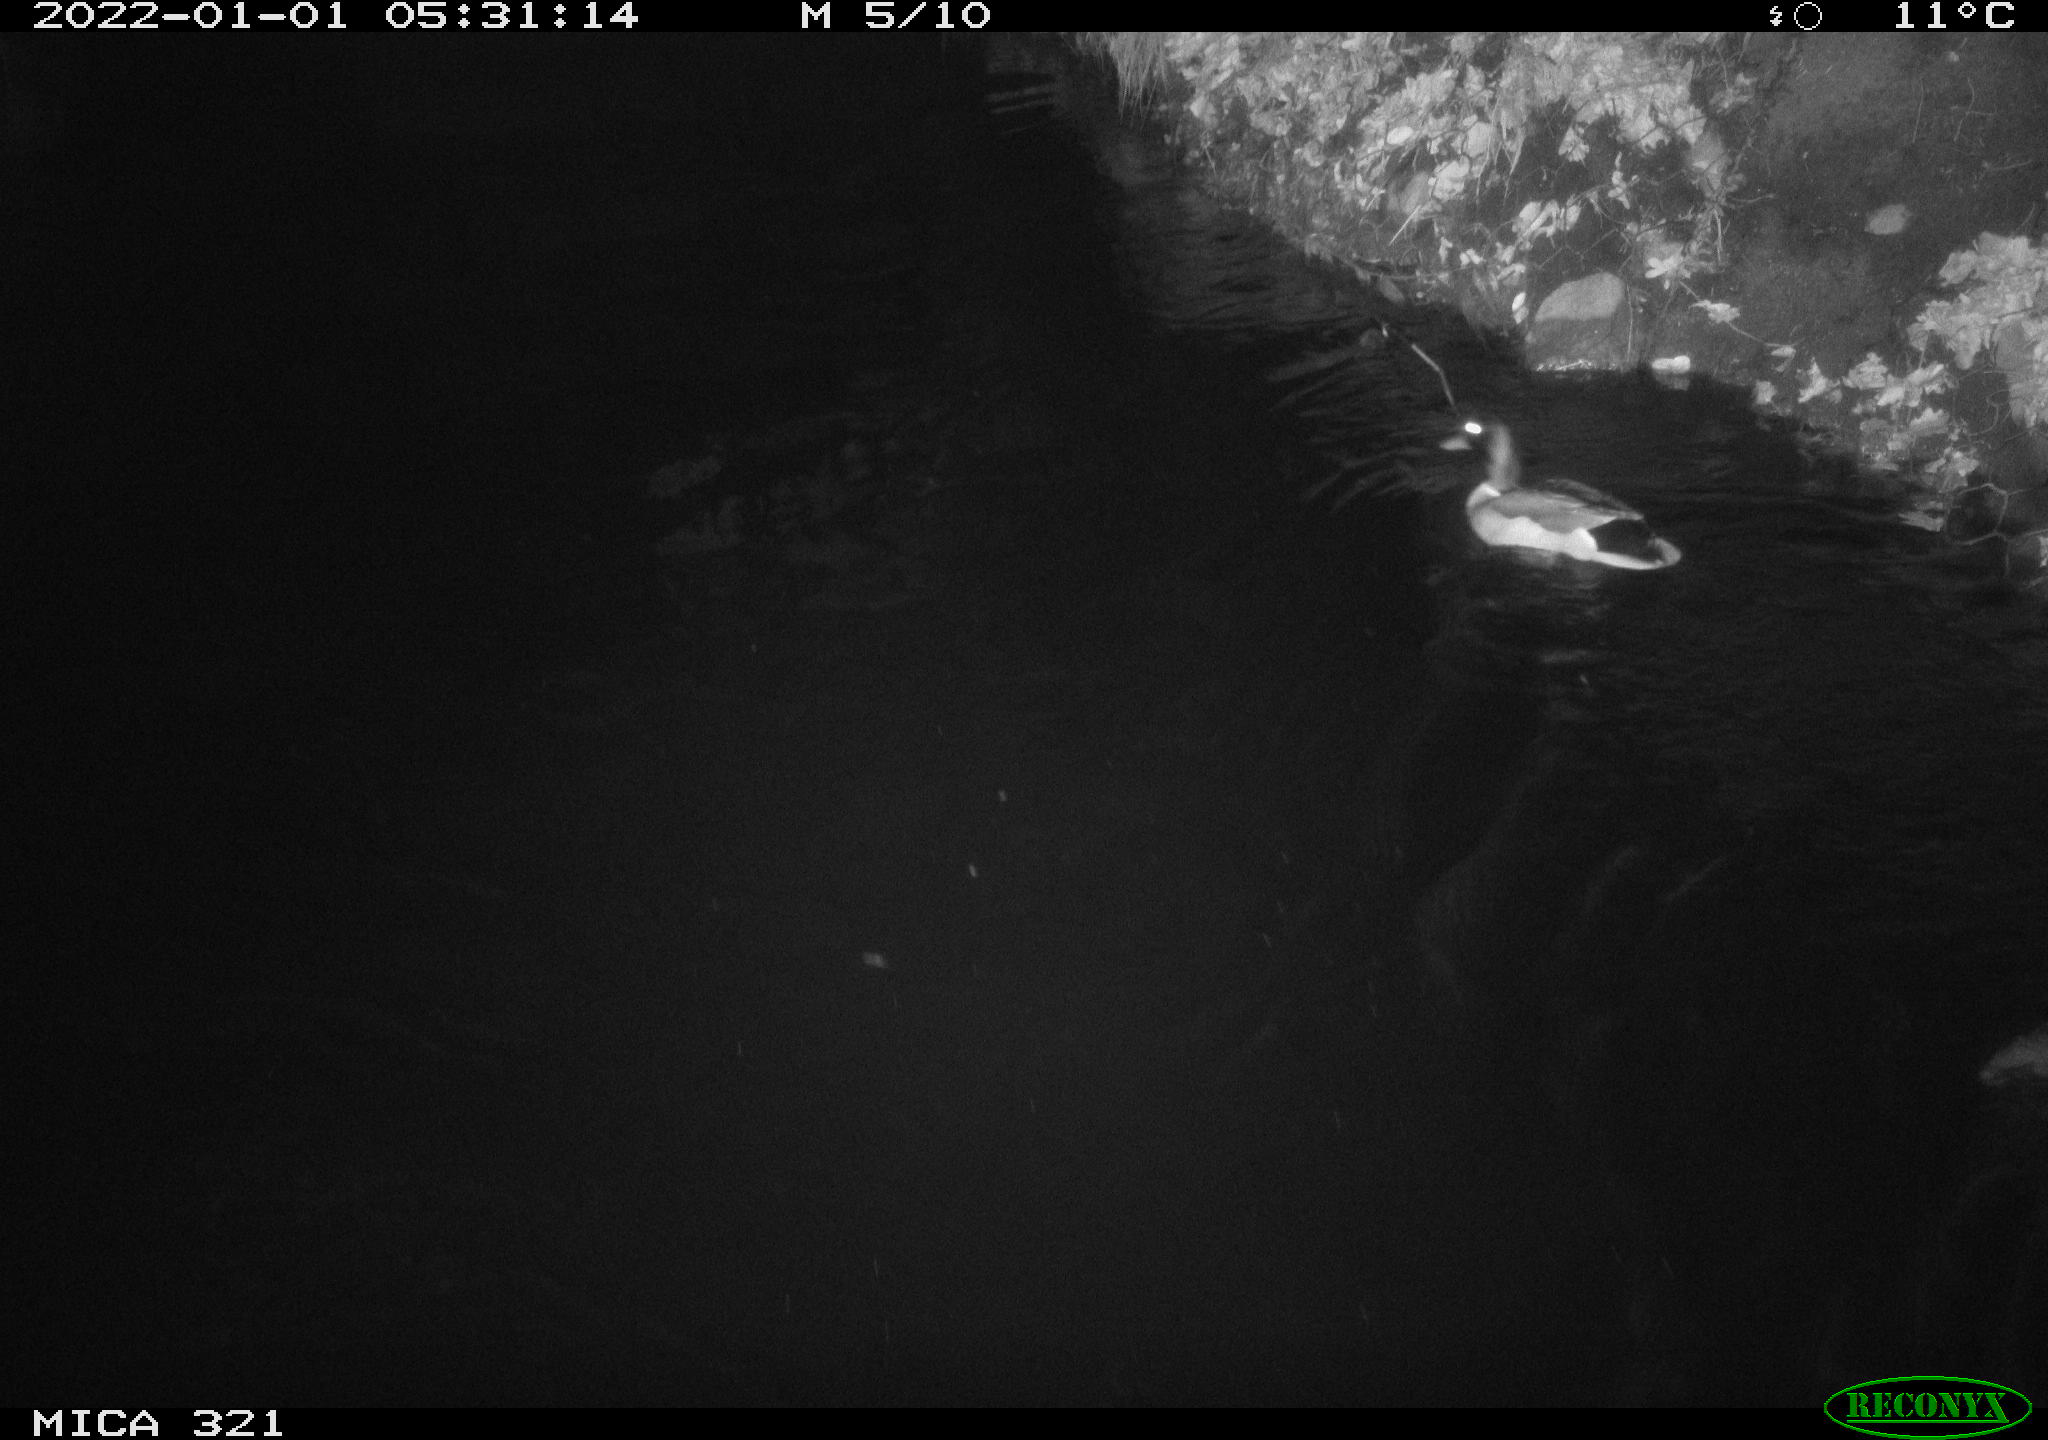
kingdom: Animalia
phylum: Chordata
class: Aves
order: Anseriformes
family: Anatidae
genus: Anas
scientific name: Anas
